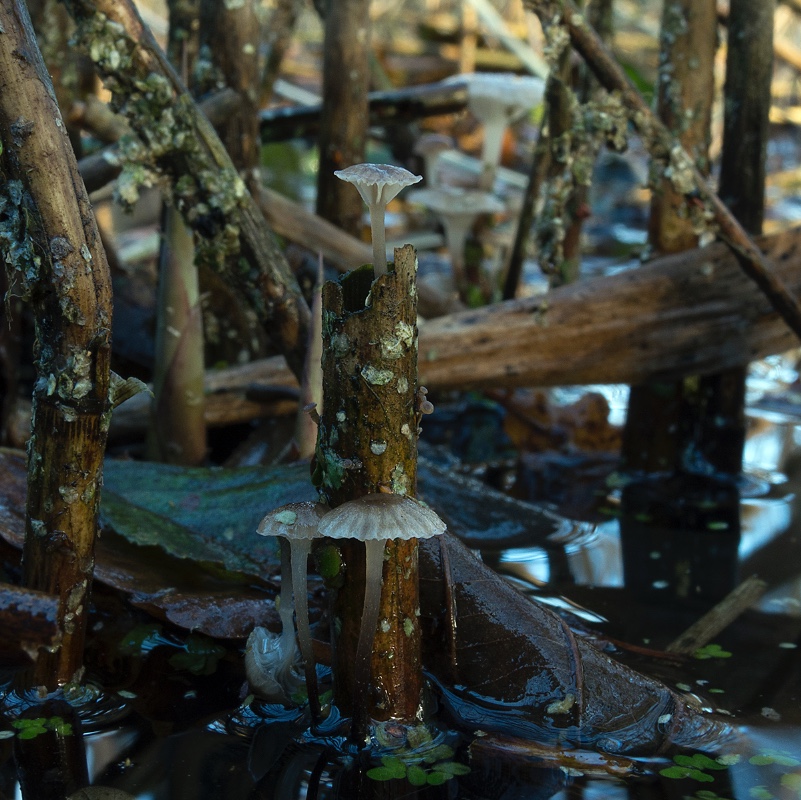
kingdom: Fungi
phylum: Basidiomycota
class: Agaricomycetes
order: Agaricales
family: Mycenaceae
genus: Mycena
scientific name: Mycena belliae
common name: tagrørs-huesvamp
